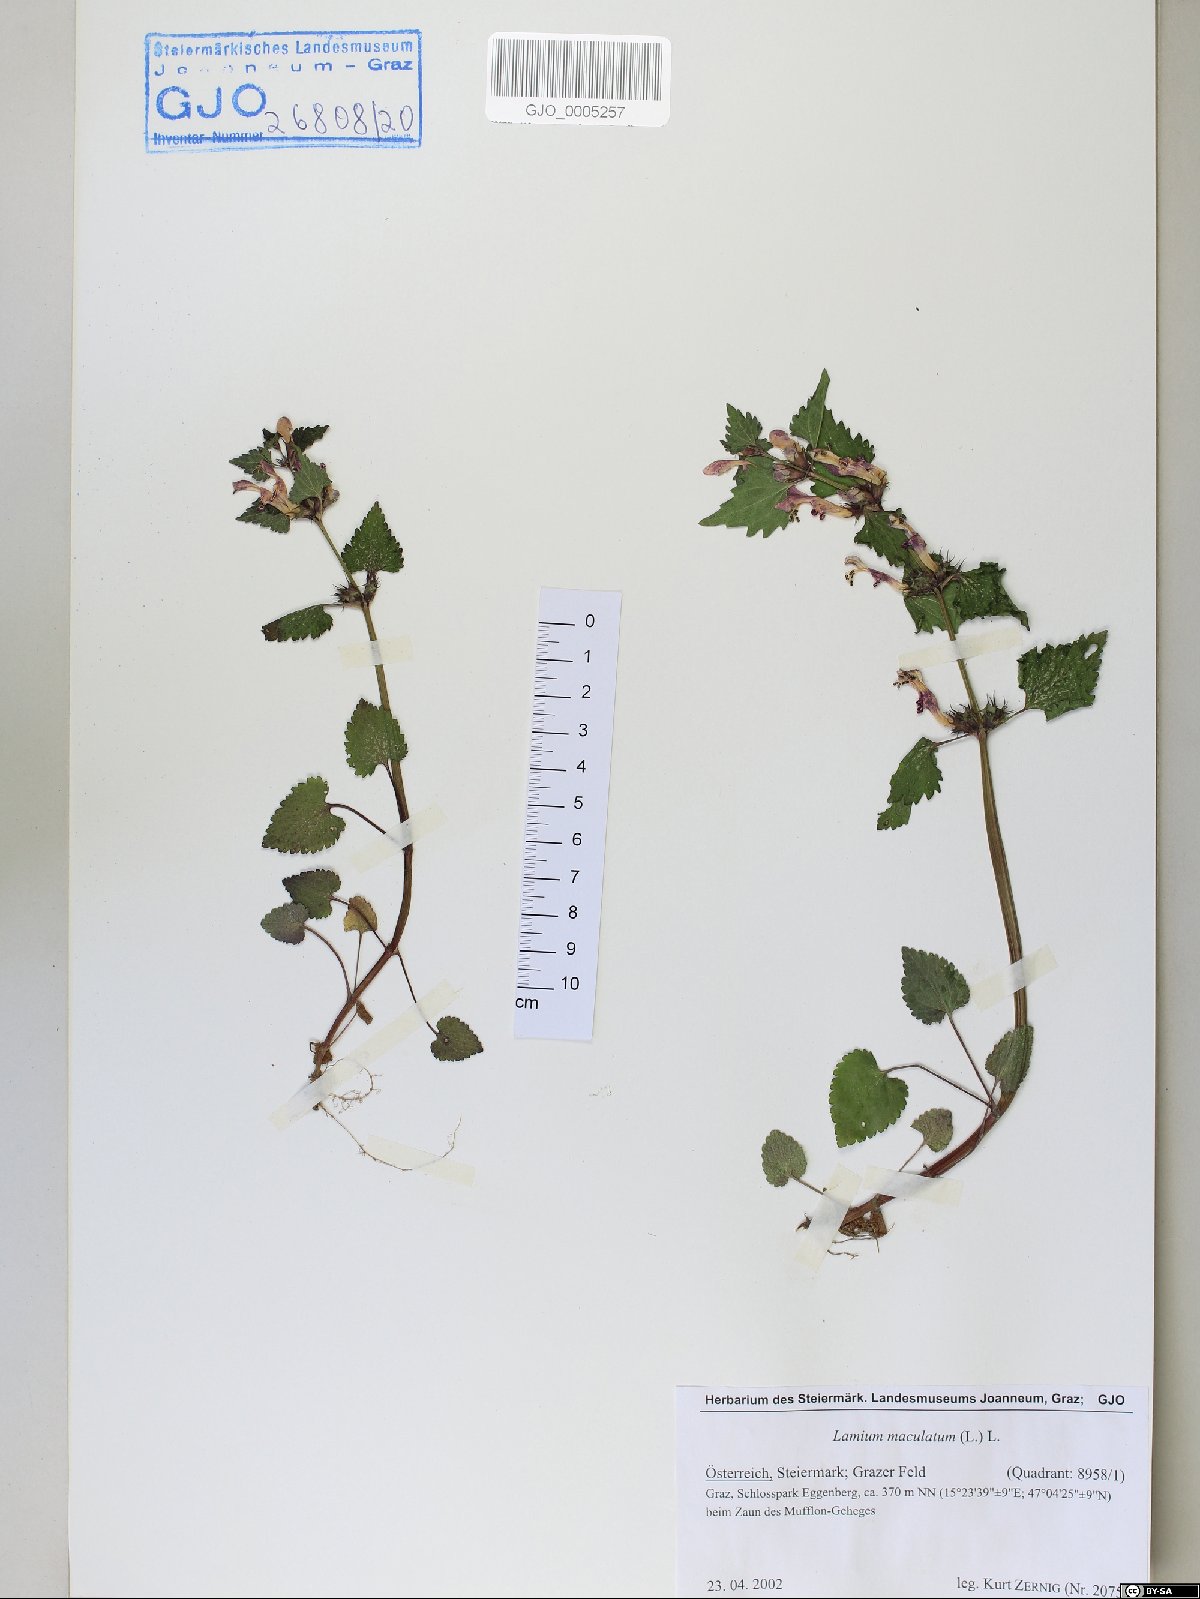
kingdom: Plantae
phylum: Tracheophyta
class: Magnoliopsida
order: Lamiales
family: Lamiaceae
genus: Lamium
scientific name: Lamium maculatum
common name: Spotted dead-nettle
